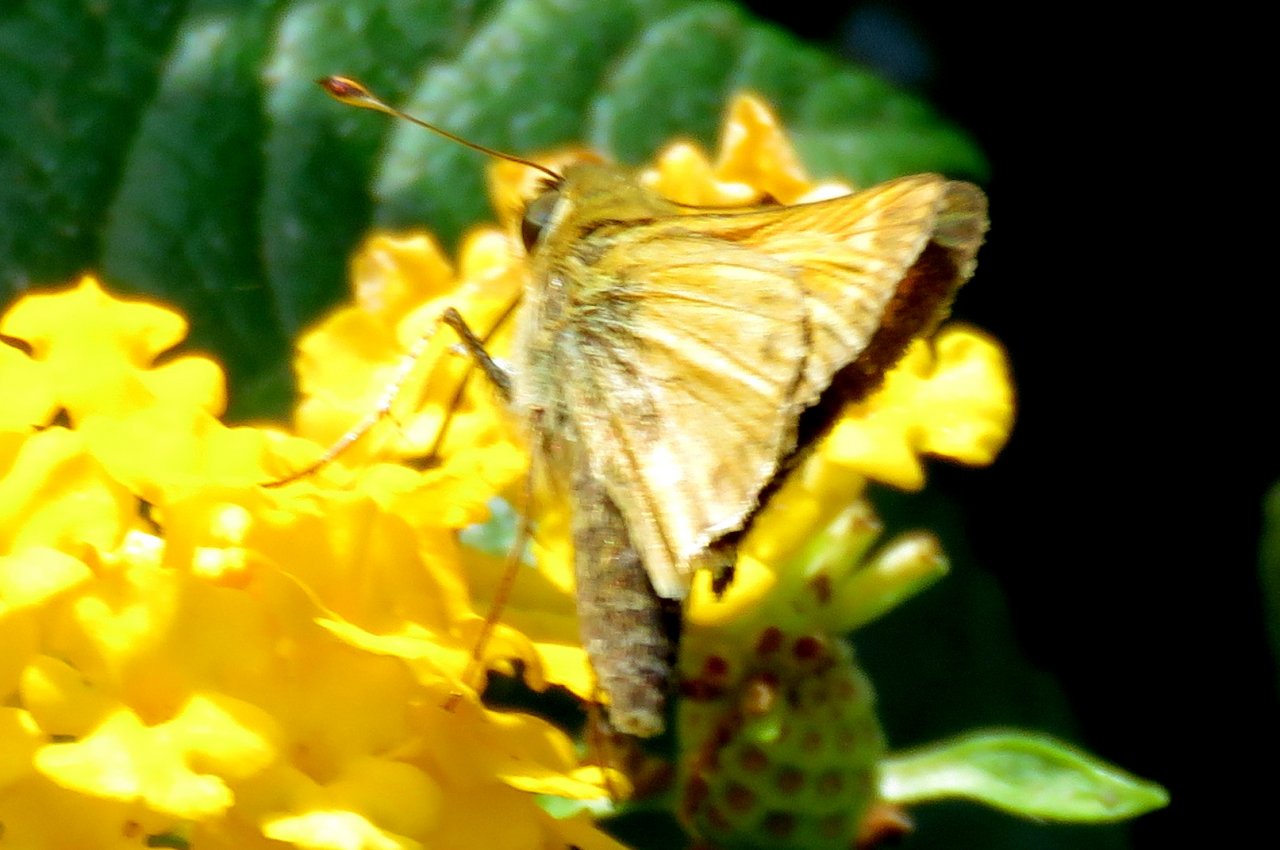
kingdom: Animalia
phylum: Arthropoda
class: Insecta
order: Lepidoptera
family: Hesperiidae
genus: Hylephila
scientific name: Hylephila phyleus
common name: Fiery Skipper
